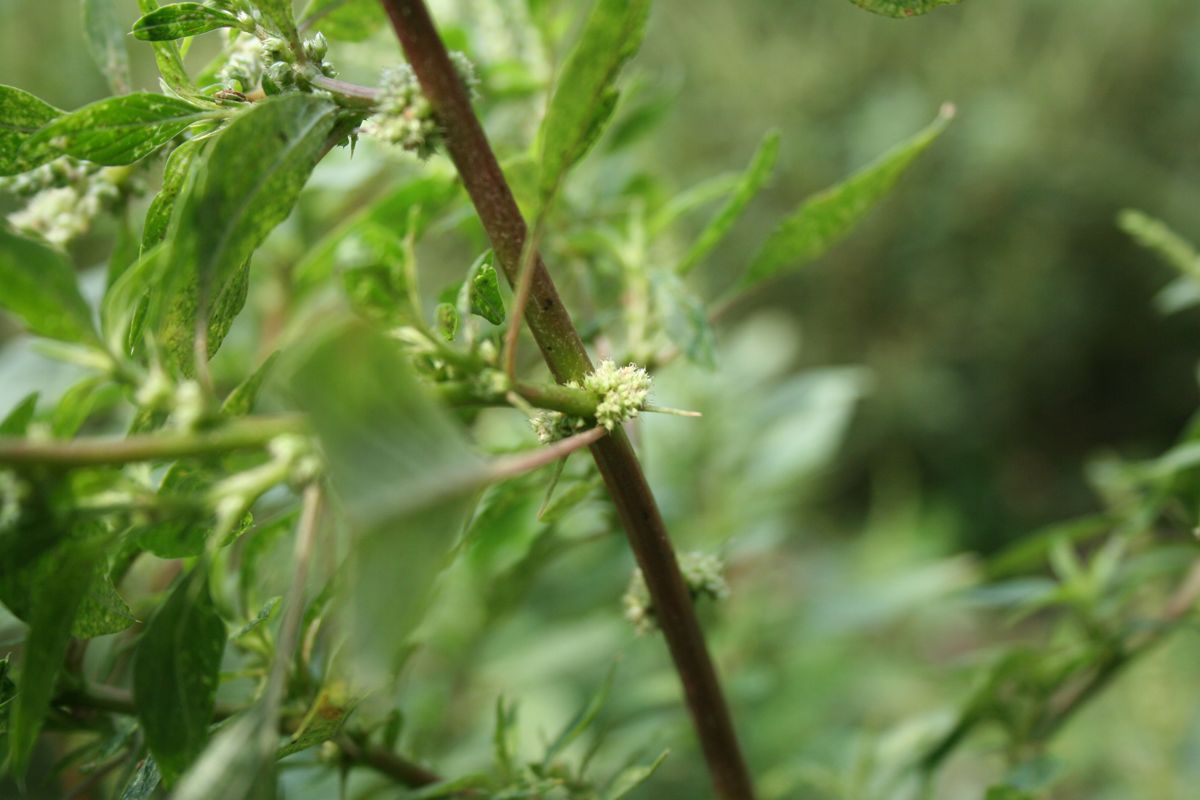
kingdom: Plantae
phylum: Tracheophyta
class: Magnoliopsida
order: Caryophyllales
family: Amaranthaceae
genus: Amaranthus
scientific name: Amaranthus spinosus
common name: Spiny amaranth
